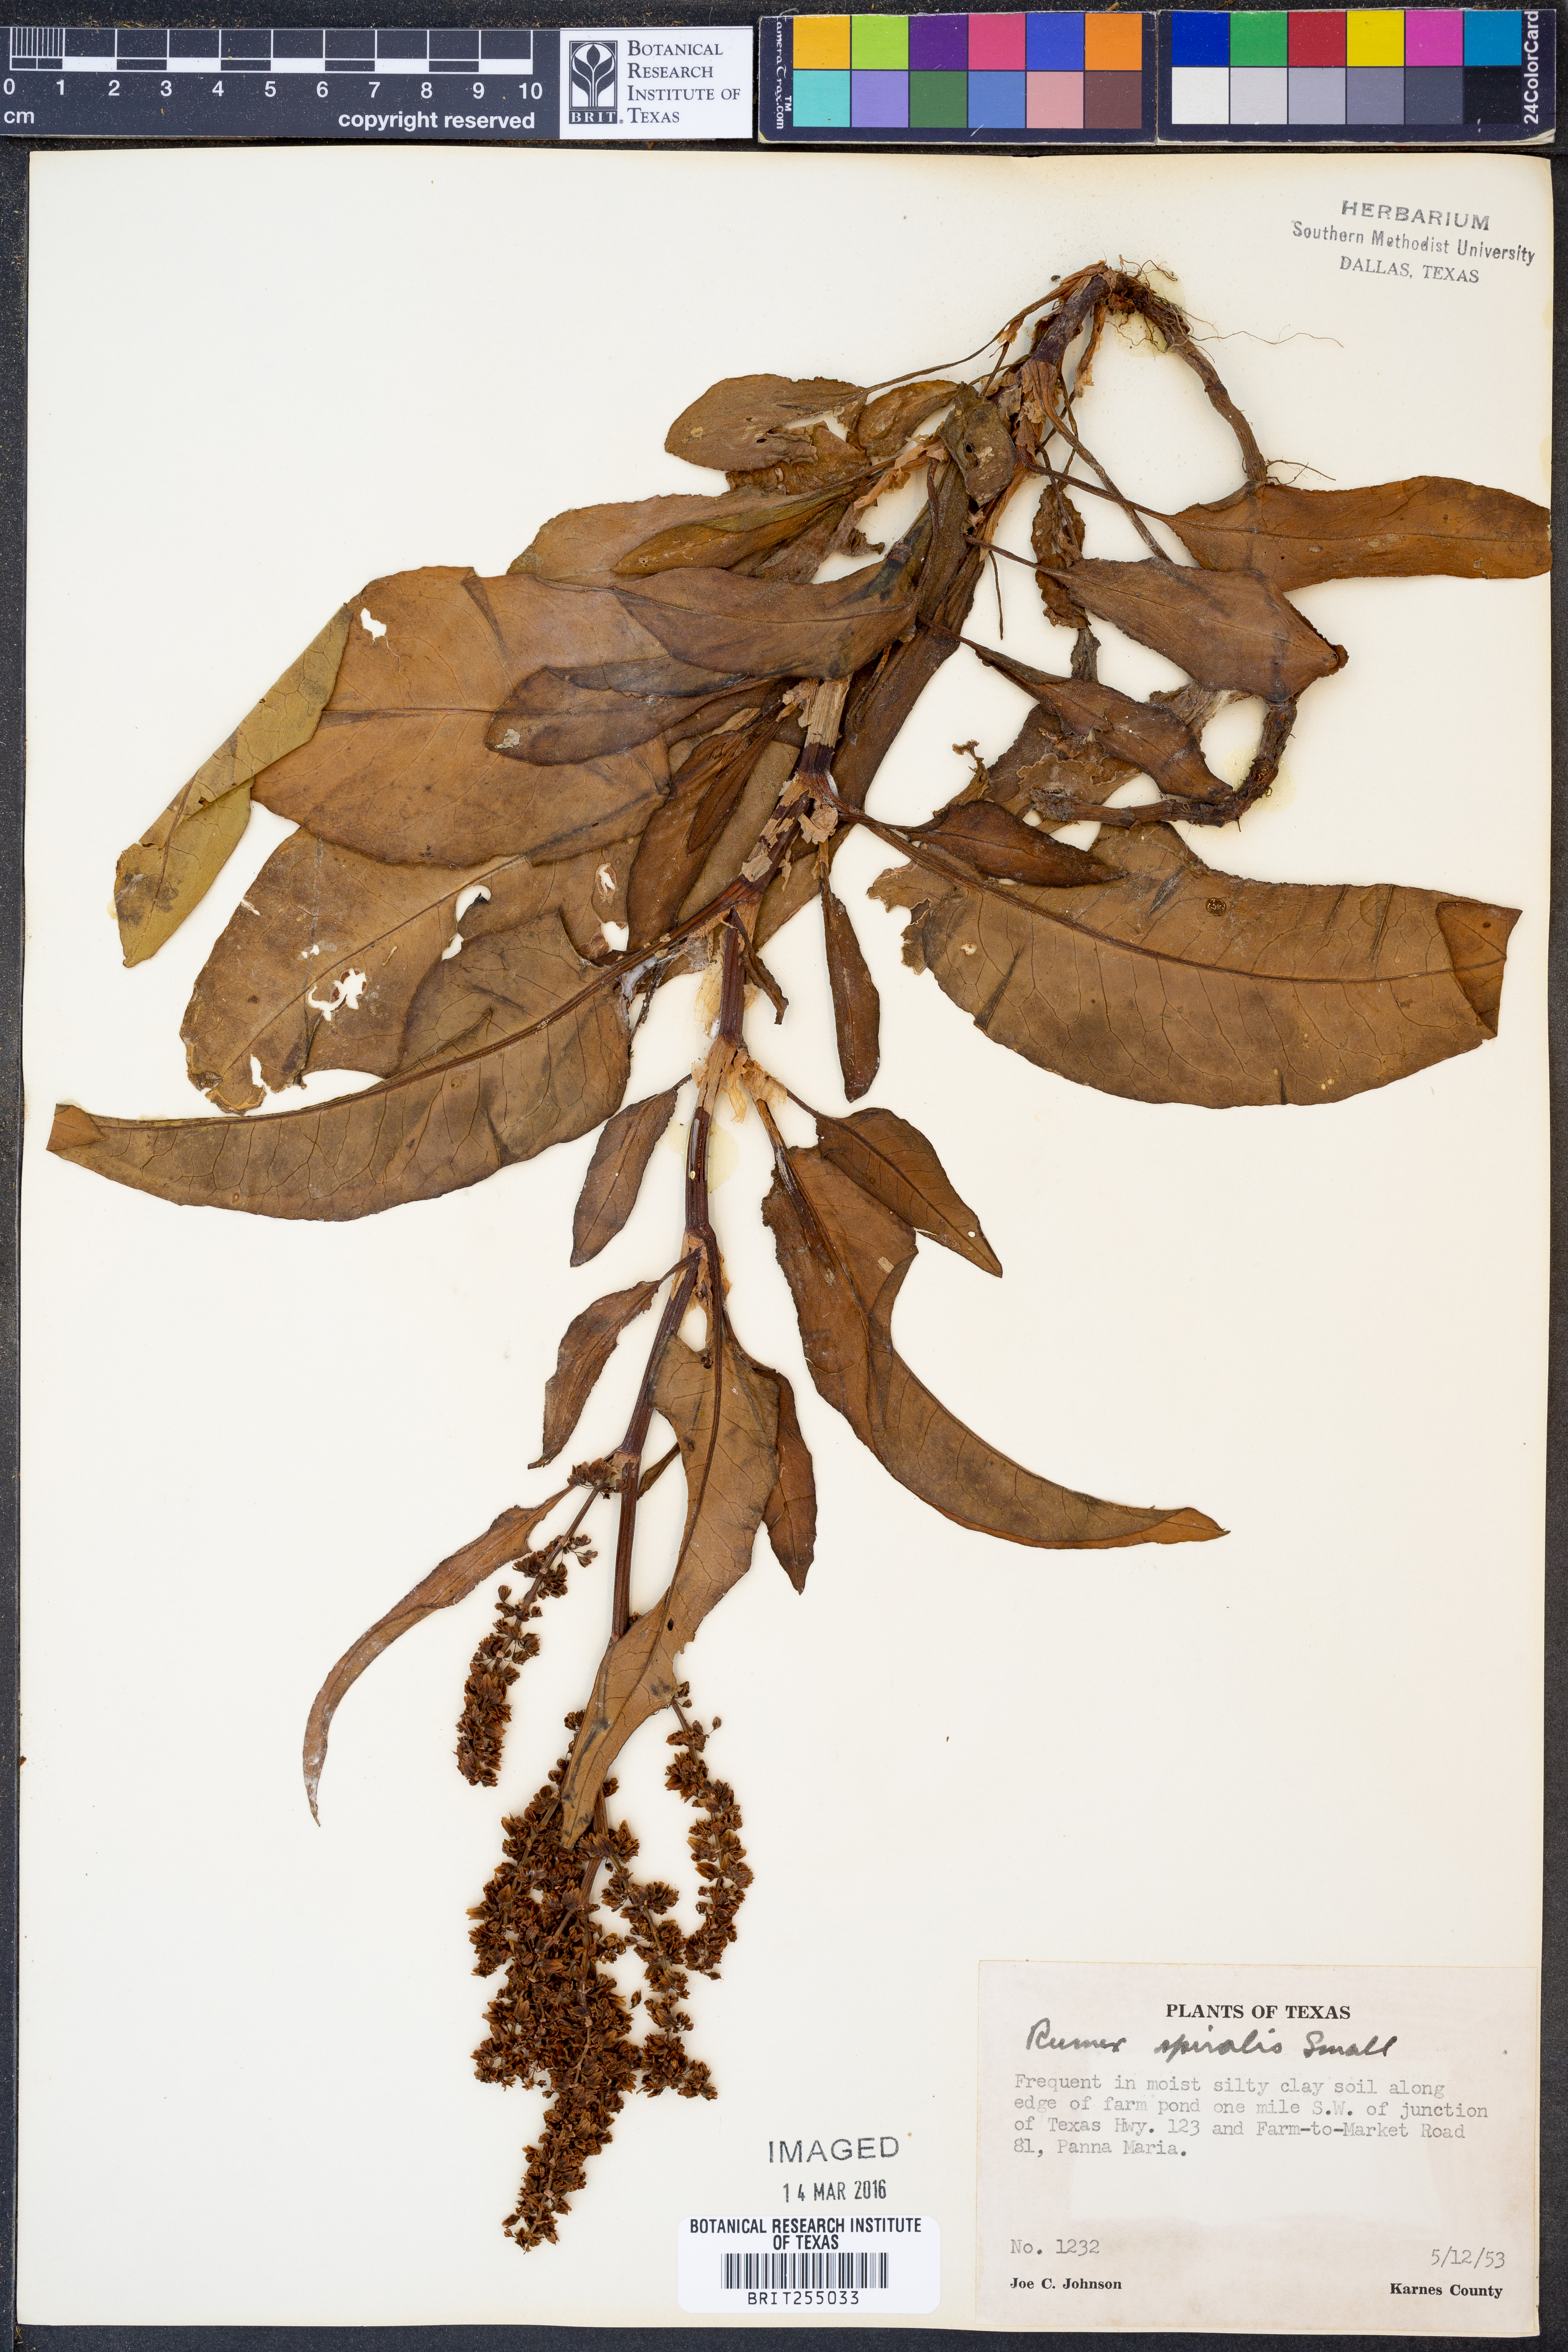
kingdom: Plantae
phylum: Tracheophyta
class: Magnoliopsida
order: Caryophyllales
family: Polygonaceae
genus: Rumex
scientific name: Rumex spiralis
